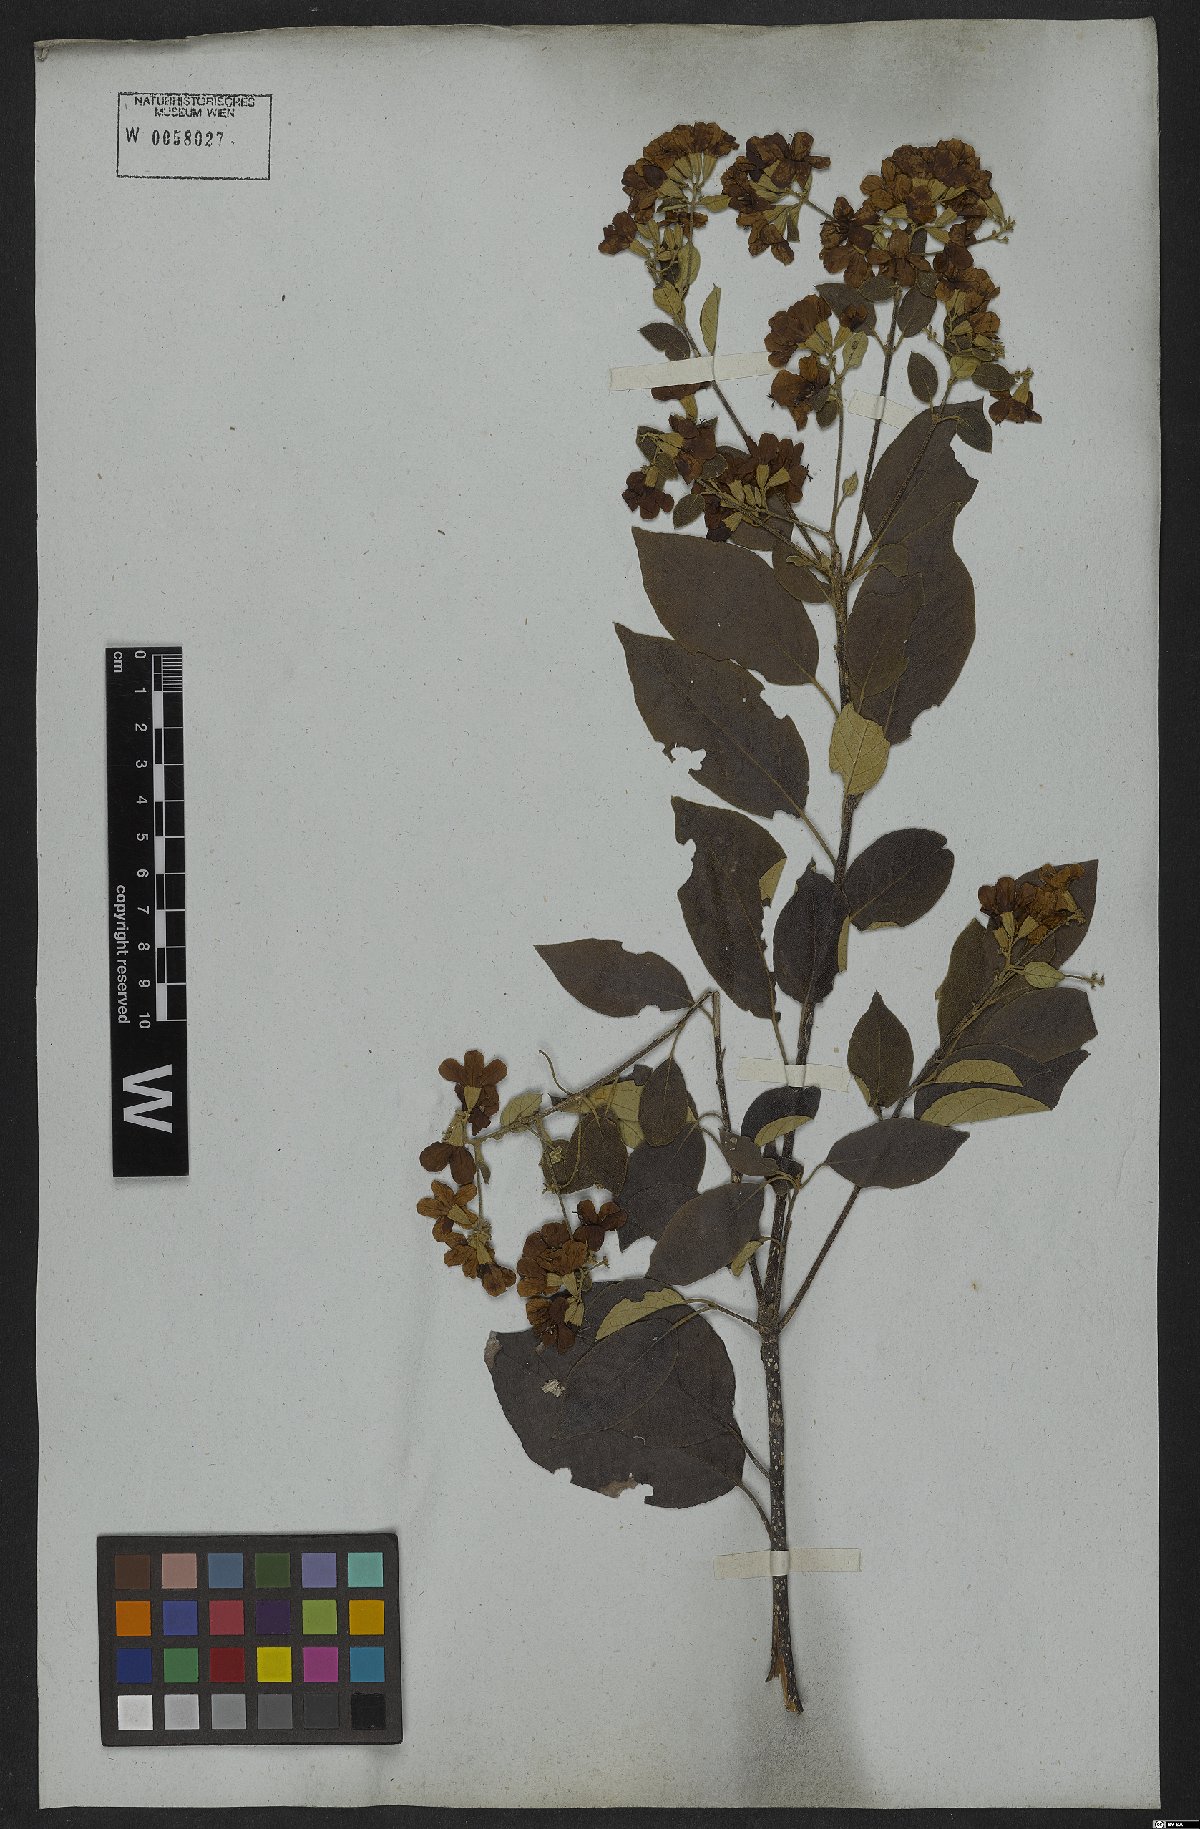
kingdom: Plantae
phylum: Tracheophyta
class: Magnoliopsida
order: Boraginales
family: Cordiaceae
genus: Cordia
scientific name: Cordia alliodora
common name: Spanish elm
